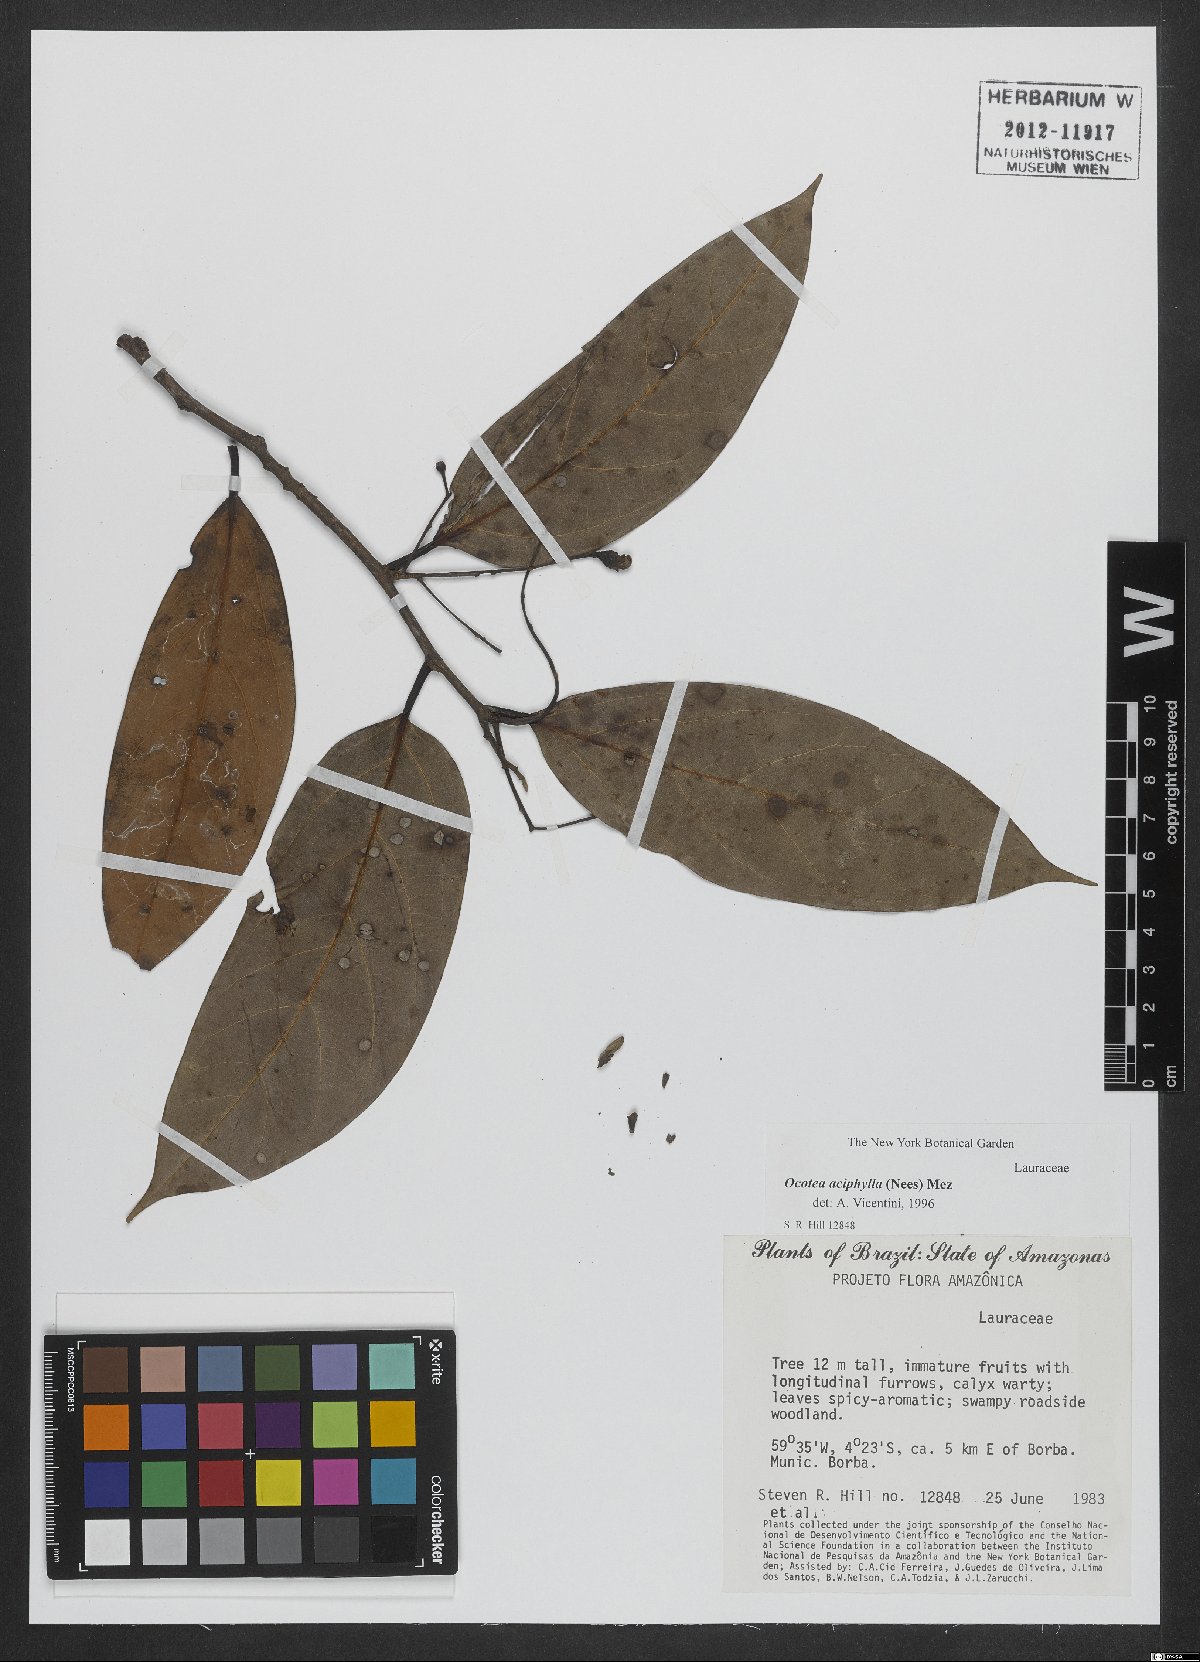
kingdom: Plantae
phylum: Tracheophyta
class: Magnoliopsida
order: Laurales
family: Lauraceae
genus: Ocotea
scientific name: Ocotea aciphylla
